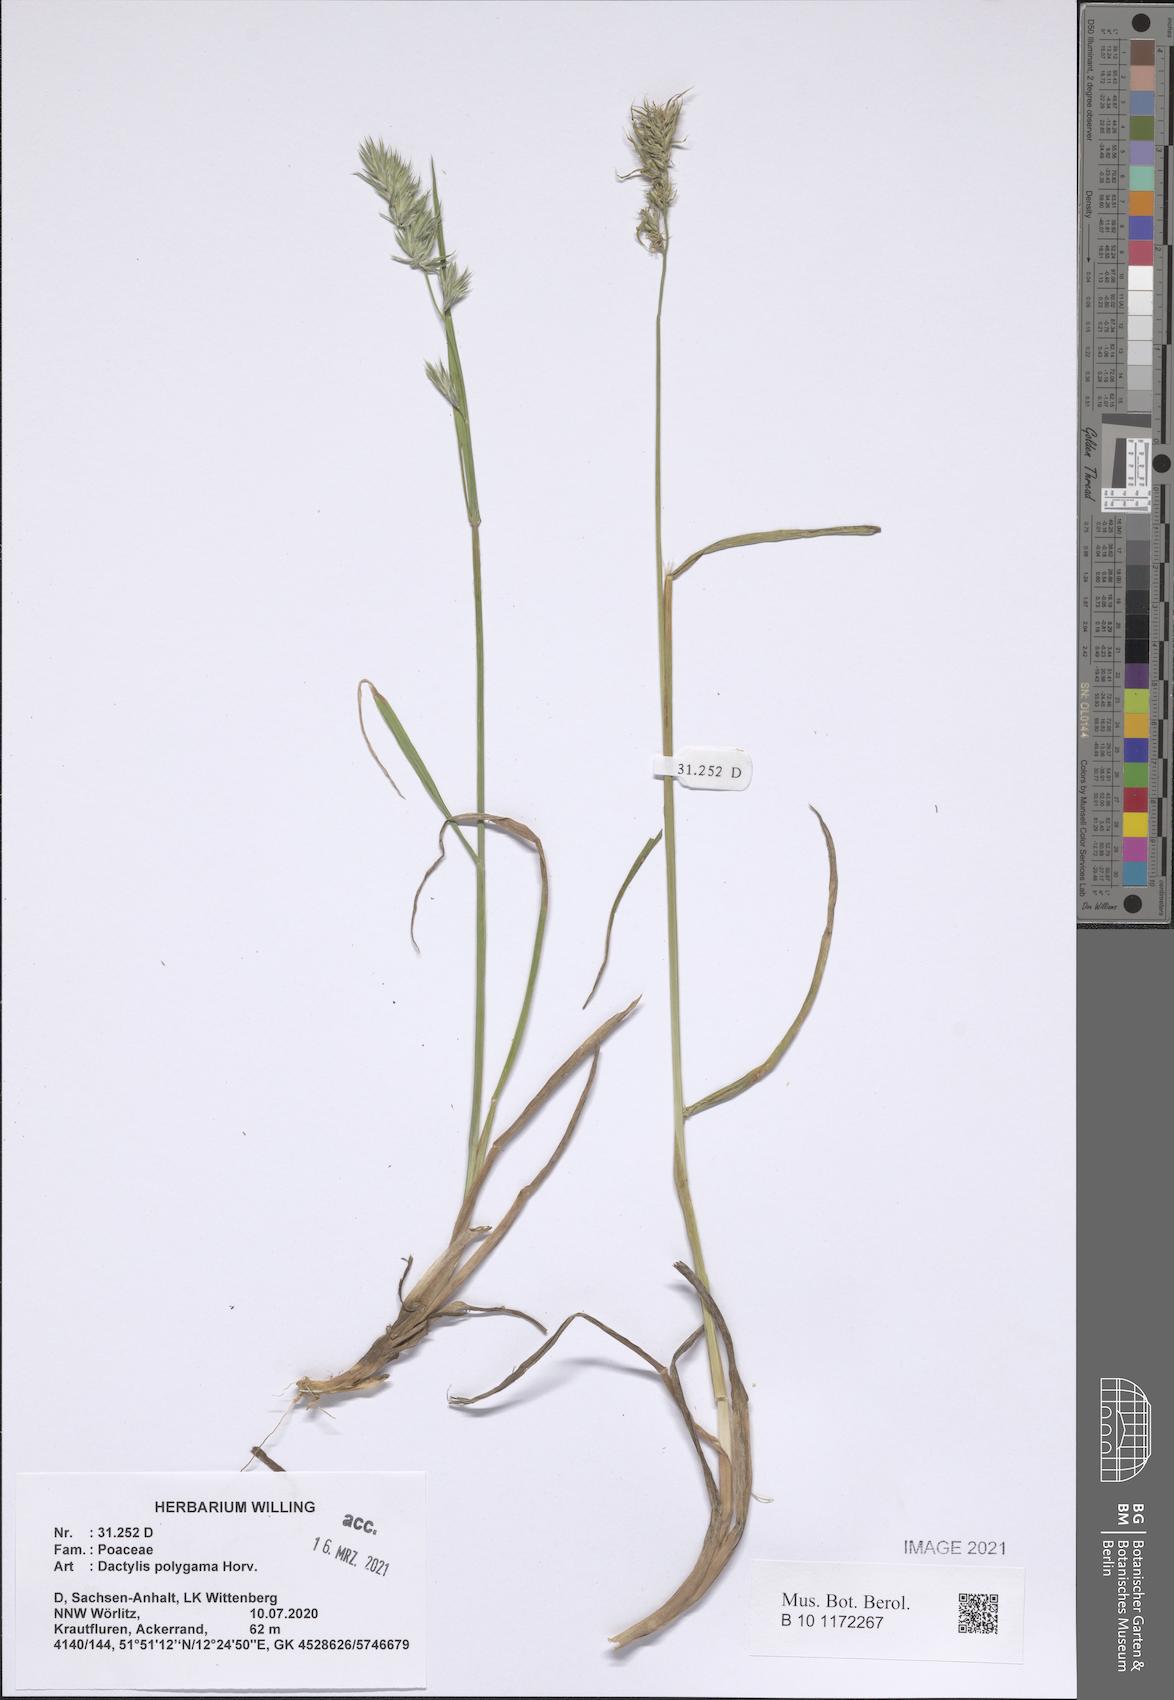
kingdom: Plantae
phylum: Tracheophyta
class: Liliopsida
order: Poales
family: Poaceae
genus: Dactylis
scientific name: Dactylis glomerata
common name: Orchardgrass
